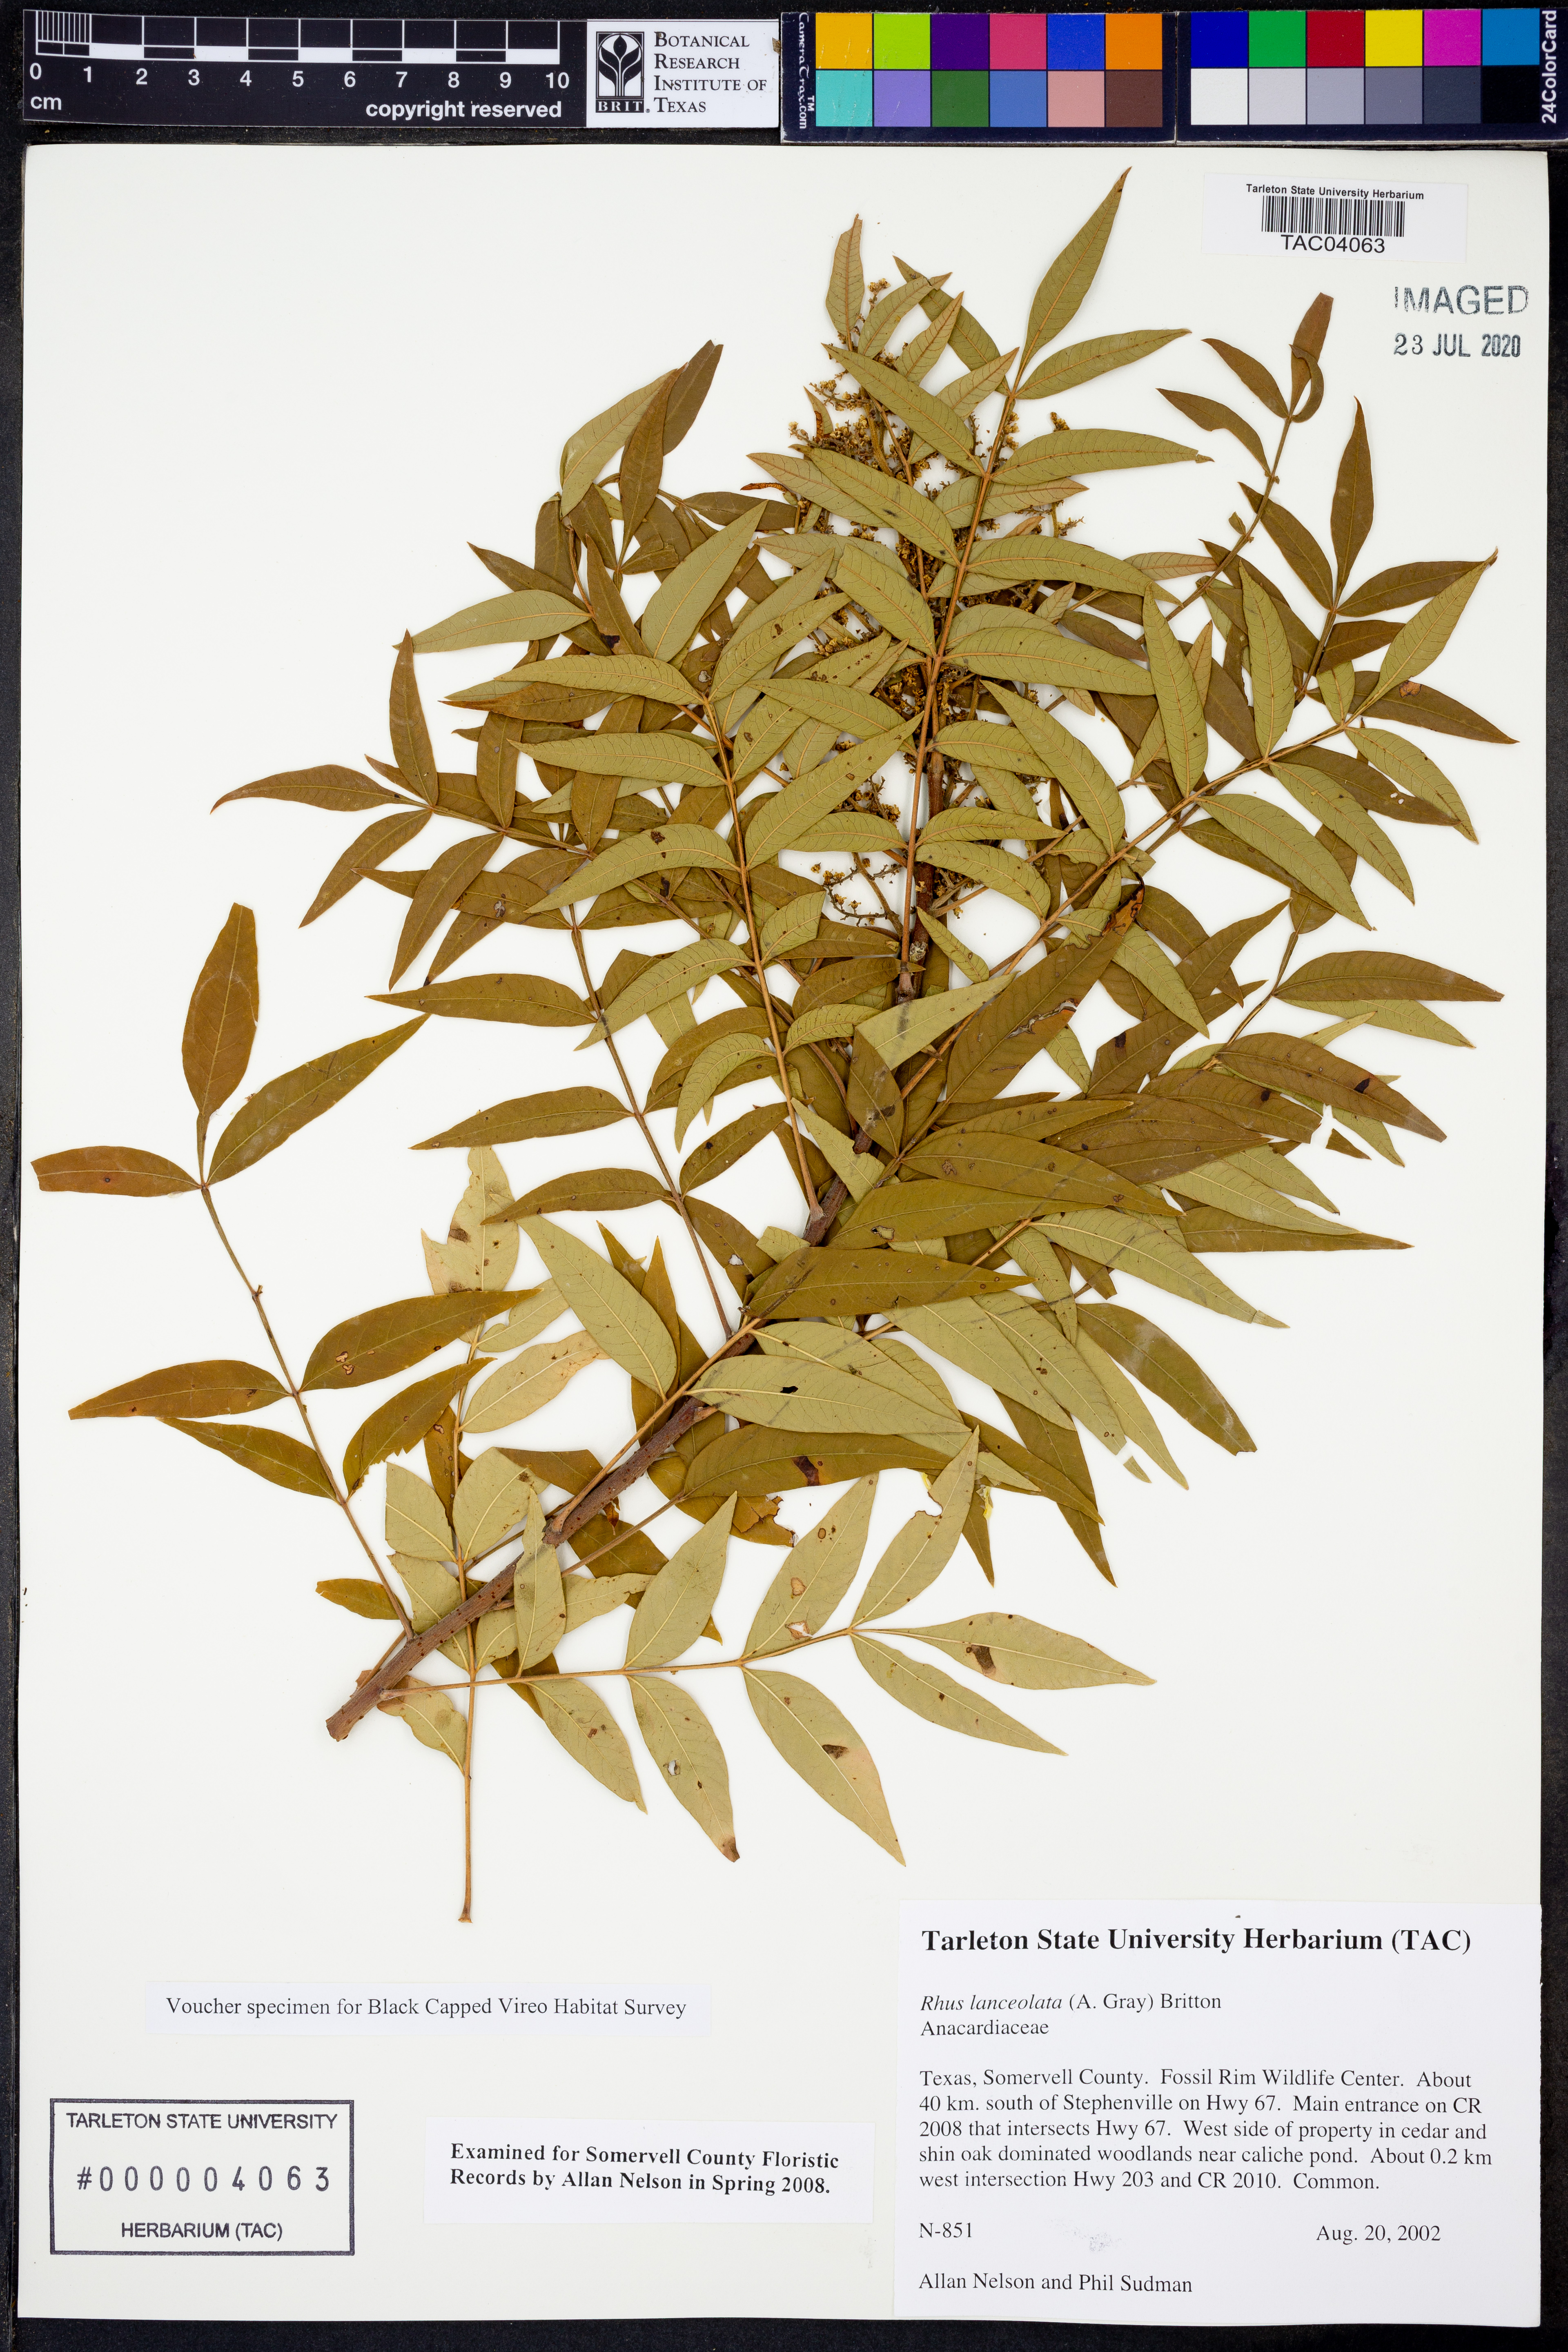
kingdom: Plantae
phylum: Tracheophyta
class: Magnoliopsida
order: Sapindales
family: Anacardiaceae
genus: Rhus
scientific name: Rhus lanceolata
